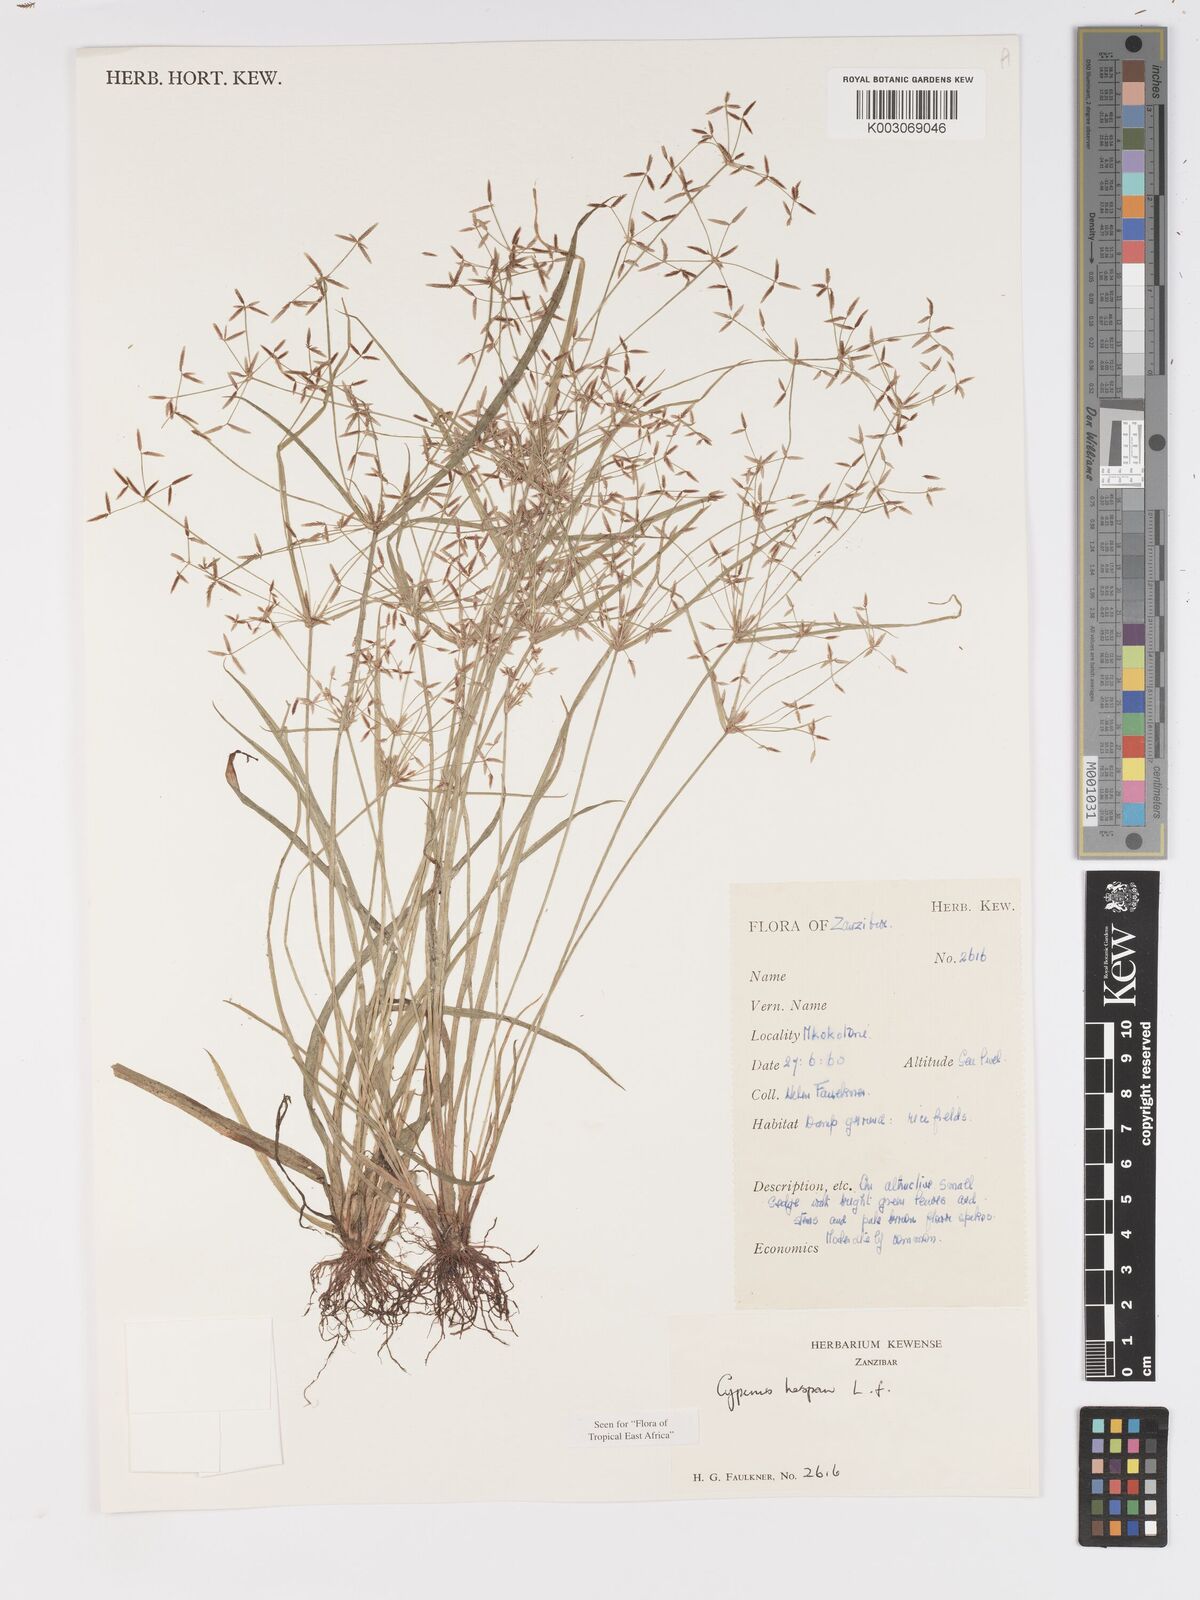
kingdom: Plantae
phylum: Tracheophyta
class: Liliopsida
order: Poales
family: Cyperaceae
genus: Cyperus
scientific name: Cyperus haspan
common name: Haspan flatsedge
